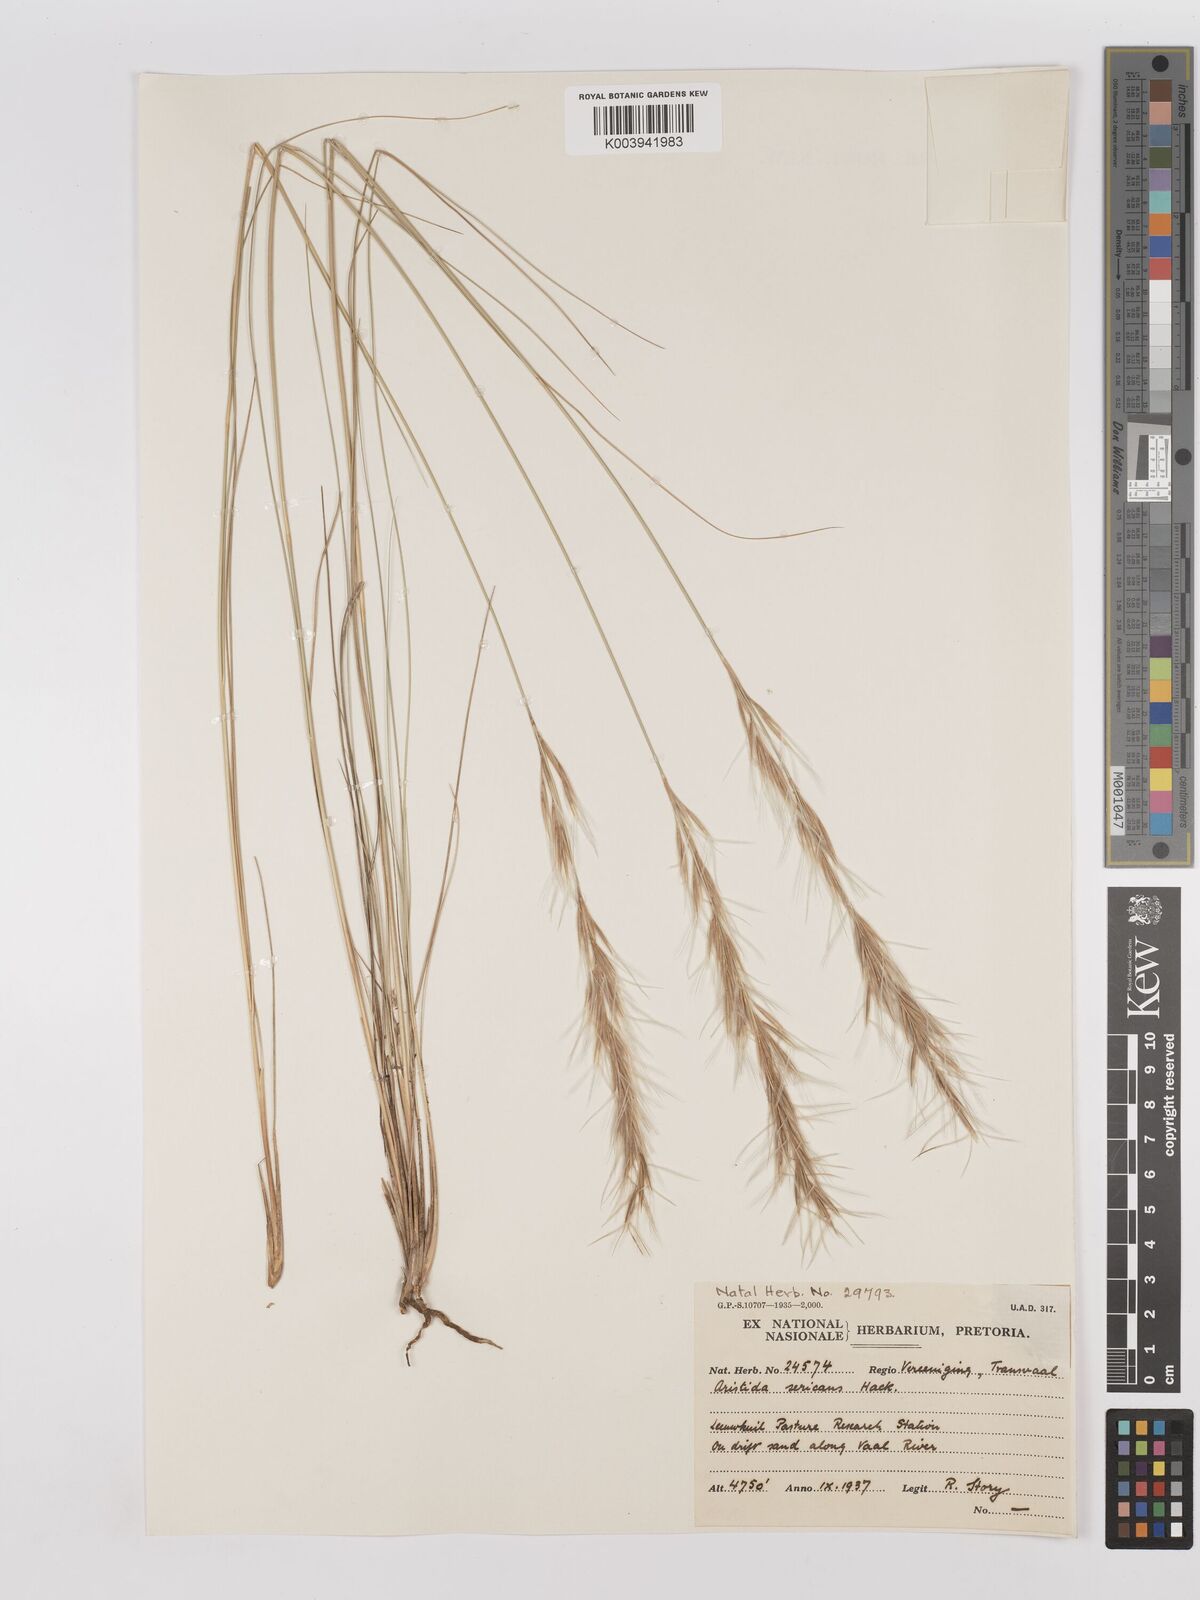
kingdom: Plantae
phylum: Tracheophyta
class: Liliopsida
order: Poales
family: Poaceae
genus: Stipagrostis
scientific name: Stipagrostis zeyheri
